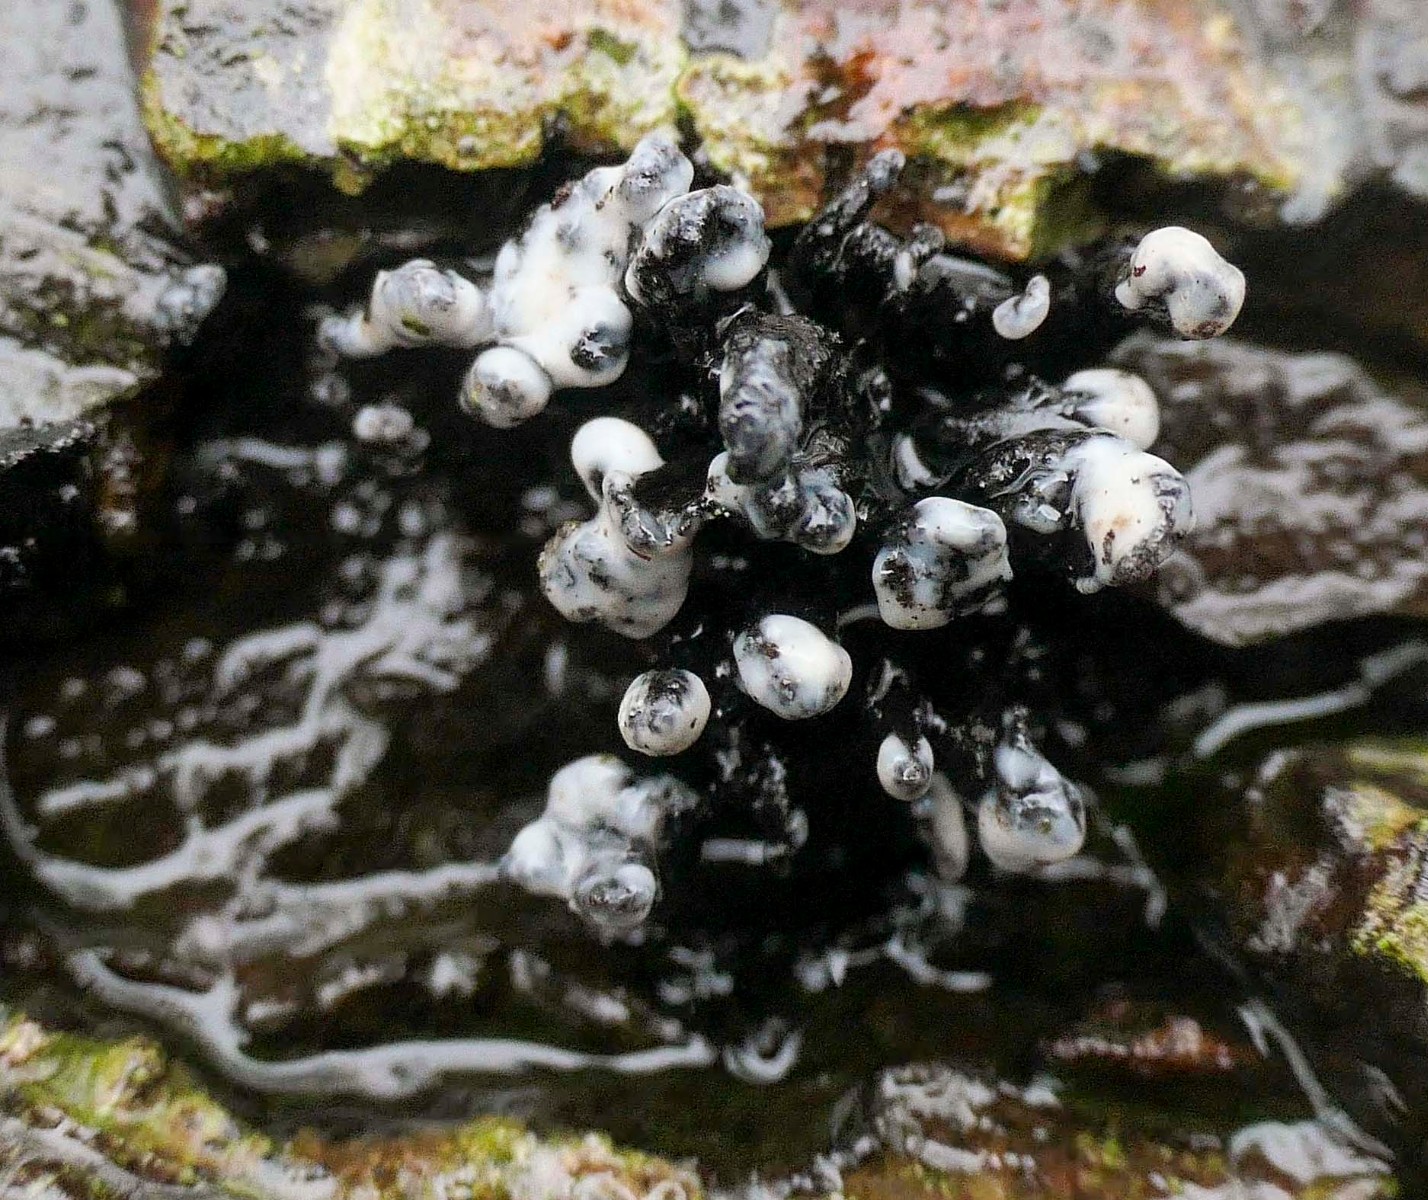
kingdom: Fungi
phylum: Ascomycota
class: Leotiomycetes
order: Helotiales
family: Bulgariaceae
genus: Holwaya
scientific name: Holwaya mucida
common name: lindeskive
